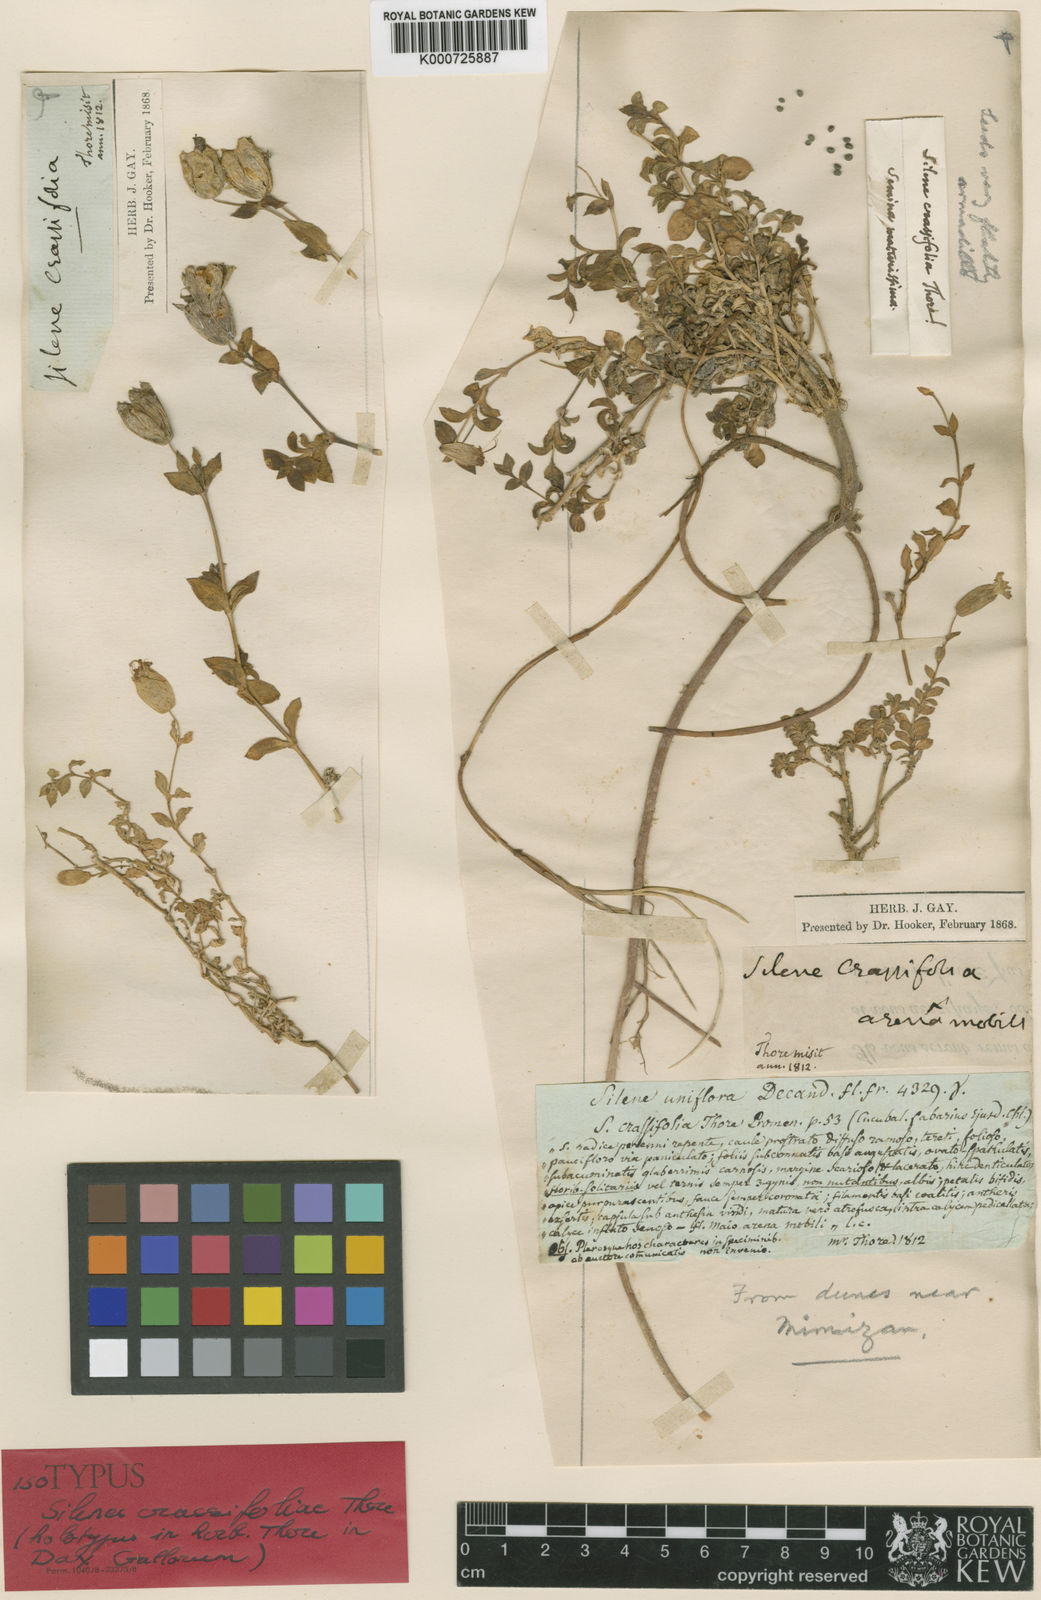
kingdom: Plantae
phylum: Tracheophyta
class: Magnoliopsida
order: Caryophyllales
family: Caryophyllaceae
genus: Silene
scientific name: Silene vulgaris
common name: Bladder campion
